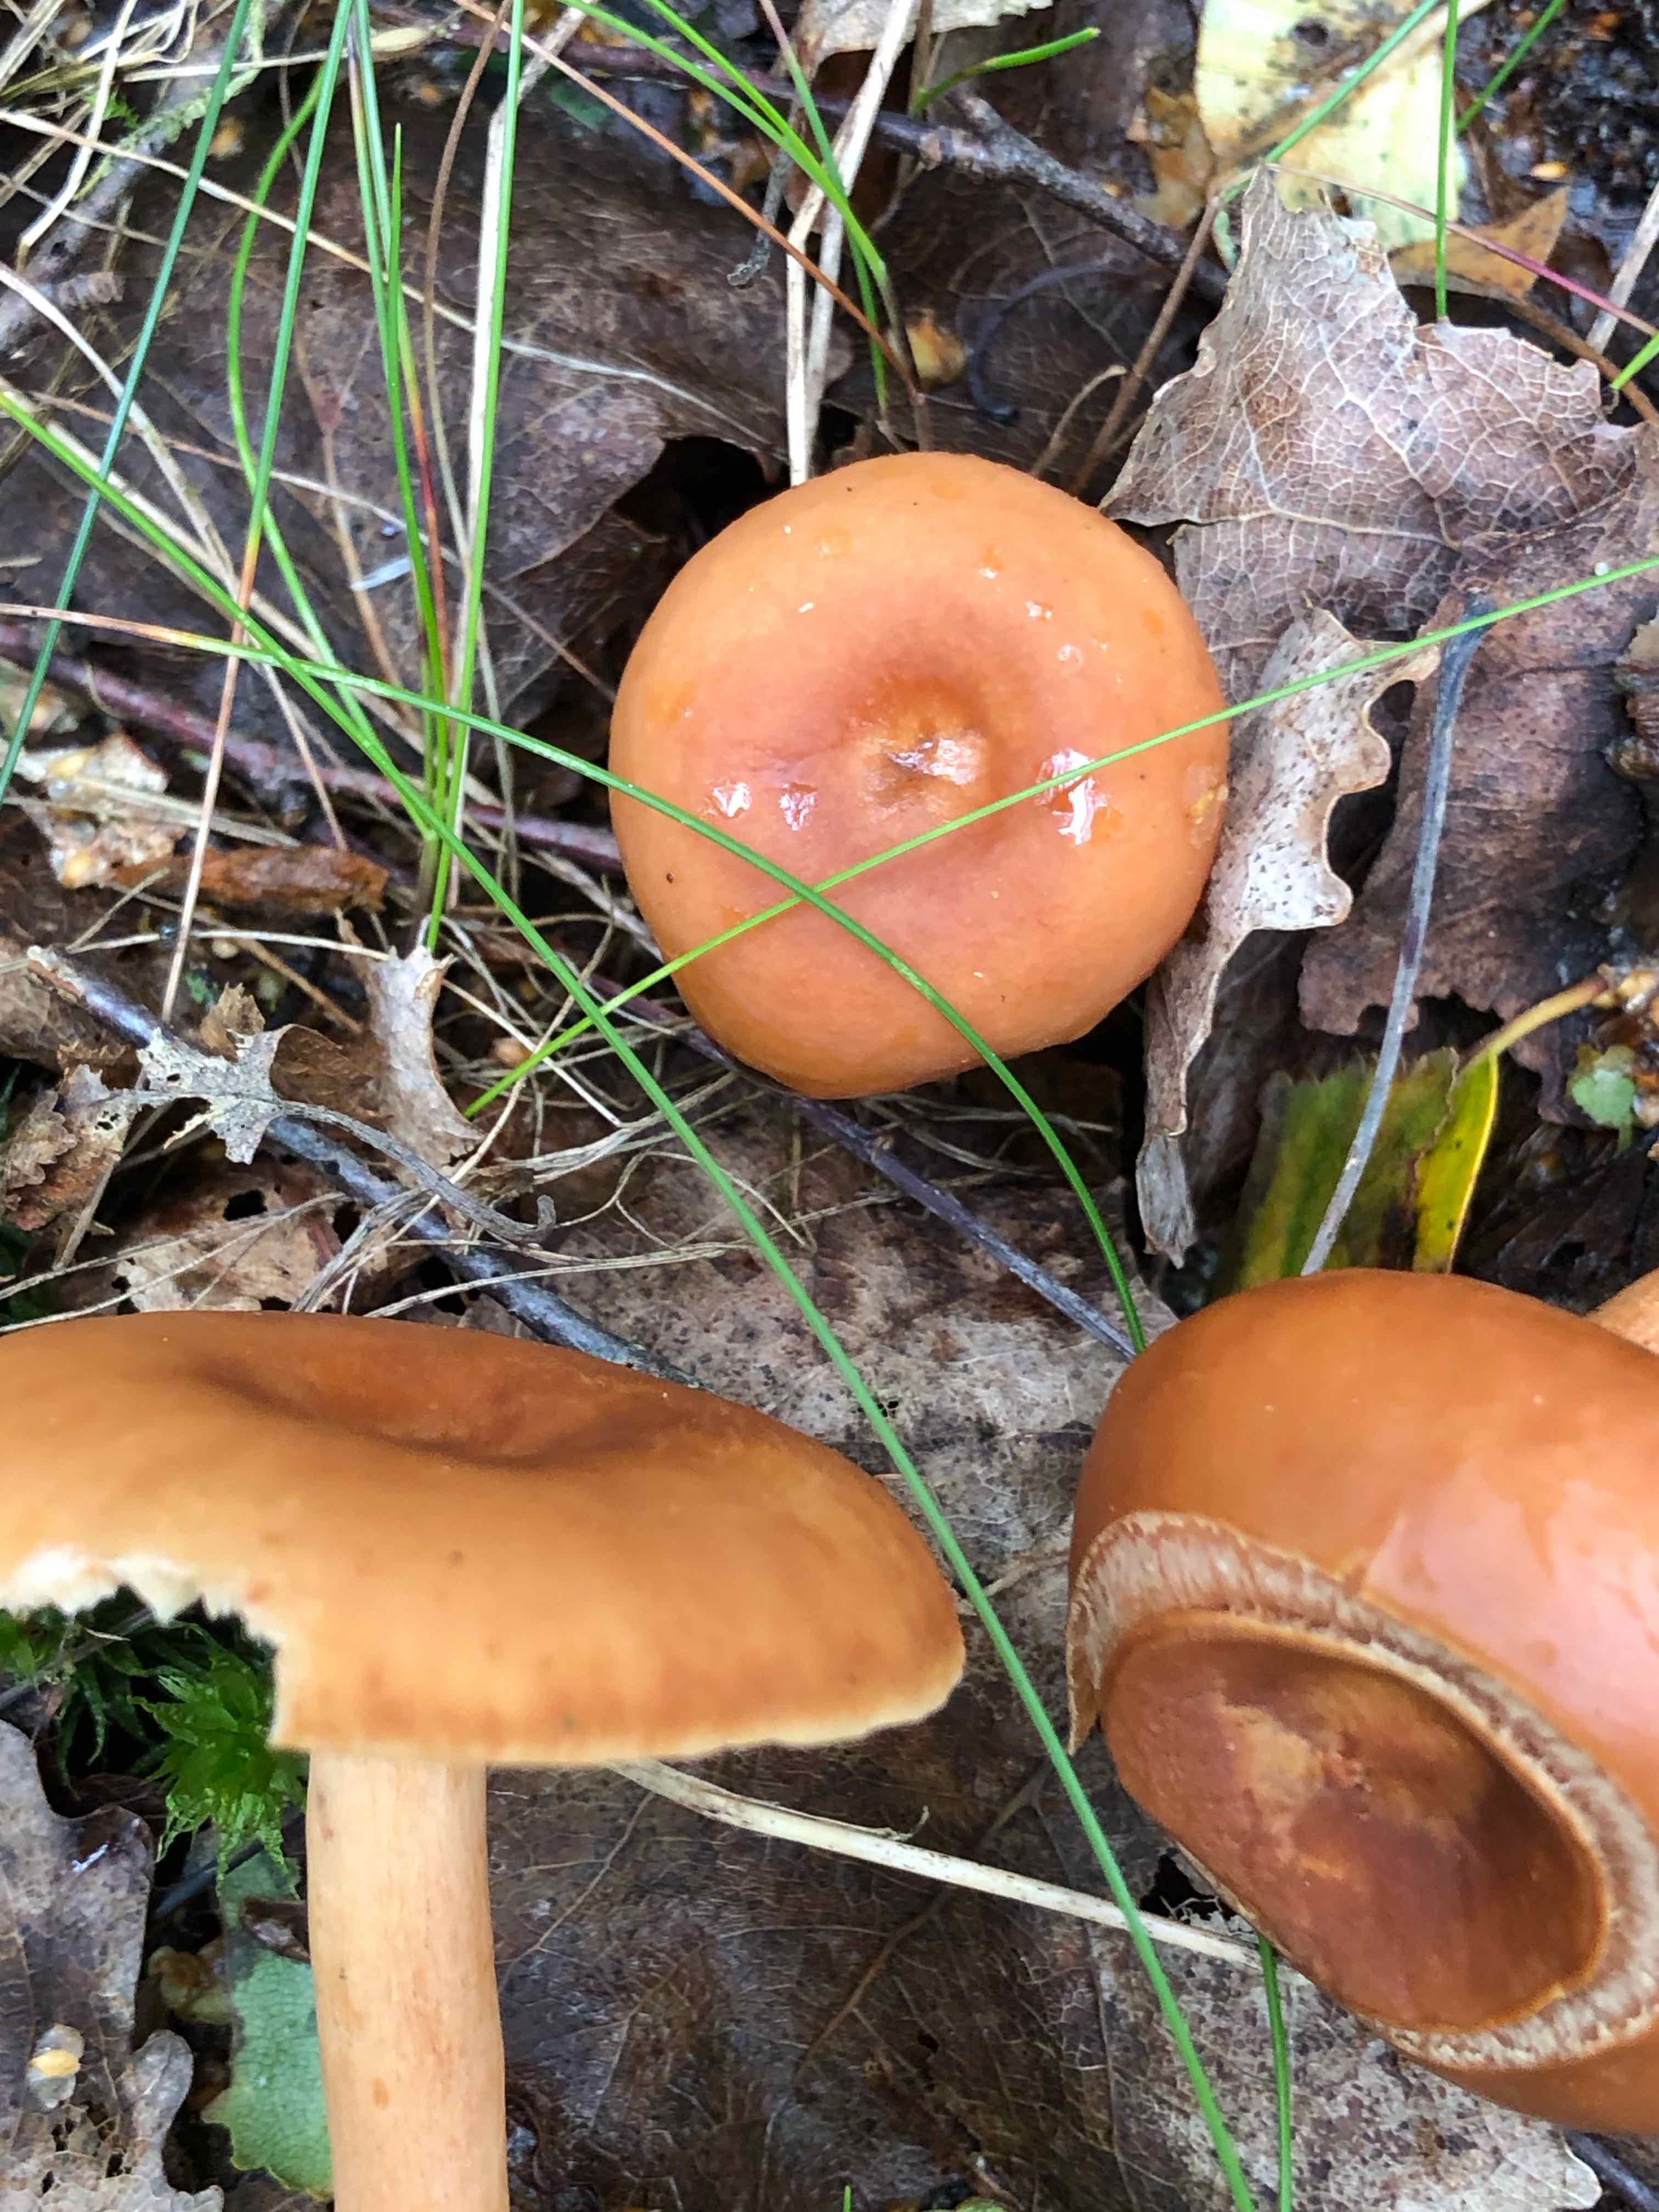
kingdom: Fungi
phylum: Basidiomycota
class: Agaricomycetes
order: Russulales
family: Russulaceae
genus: Lactarius
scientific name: Lactarius tabidus
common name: rynket mælkehat
